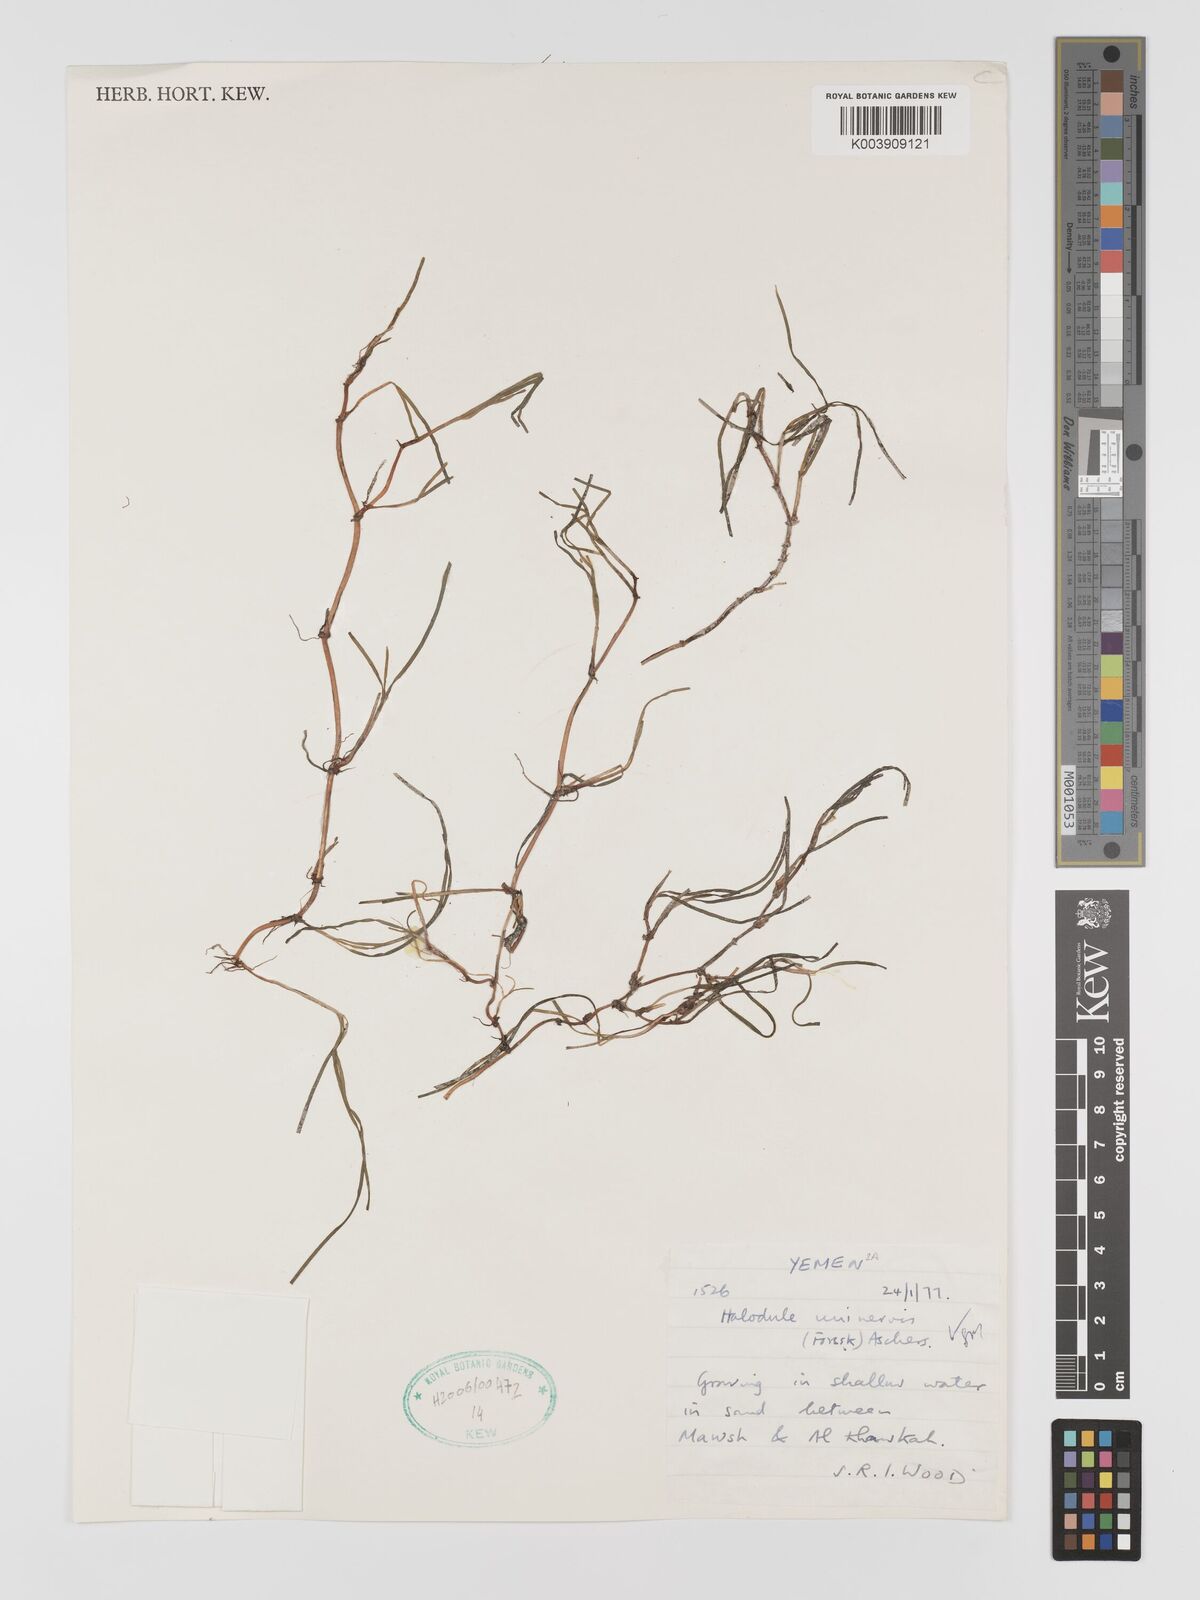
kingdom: Plantae
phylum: Tracheophyta
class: Liliopsida
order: Alismatales
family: Cymodoceaceae
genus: Halodule
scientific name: Halodule uninervis
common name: Narrowleaf seagrass
